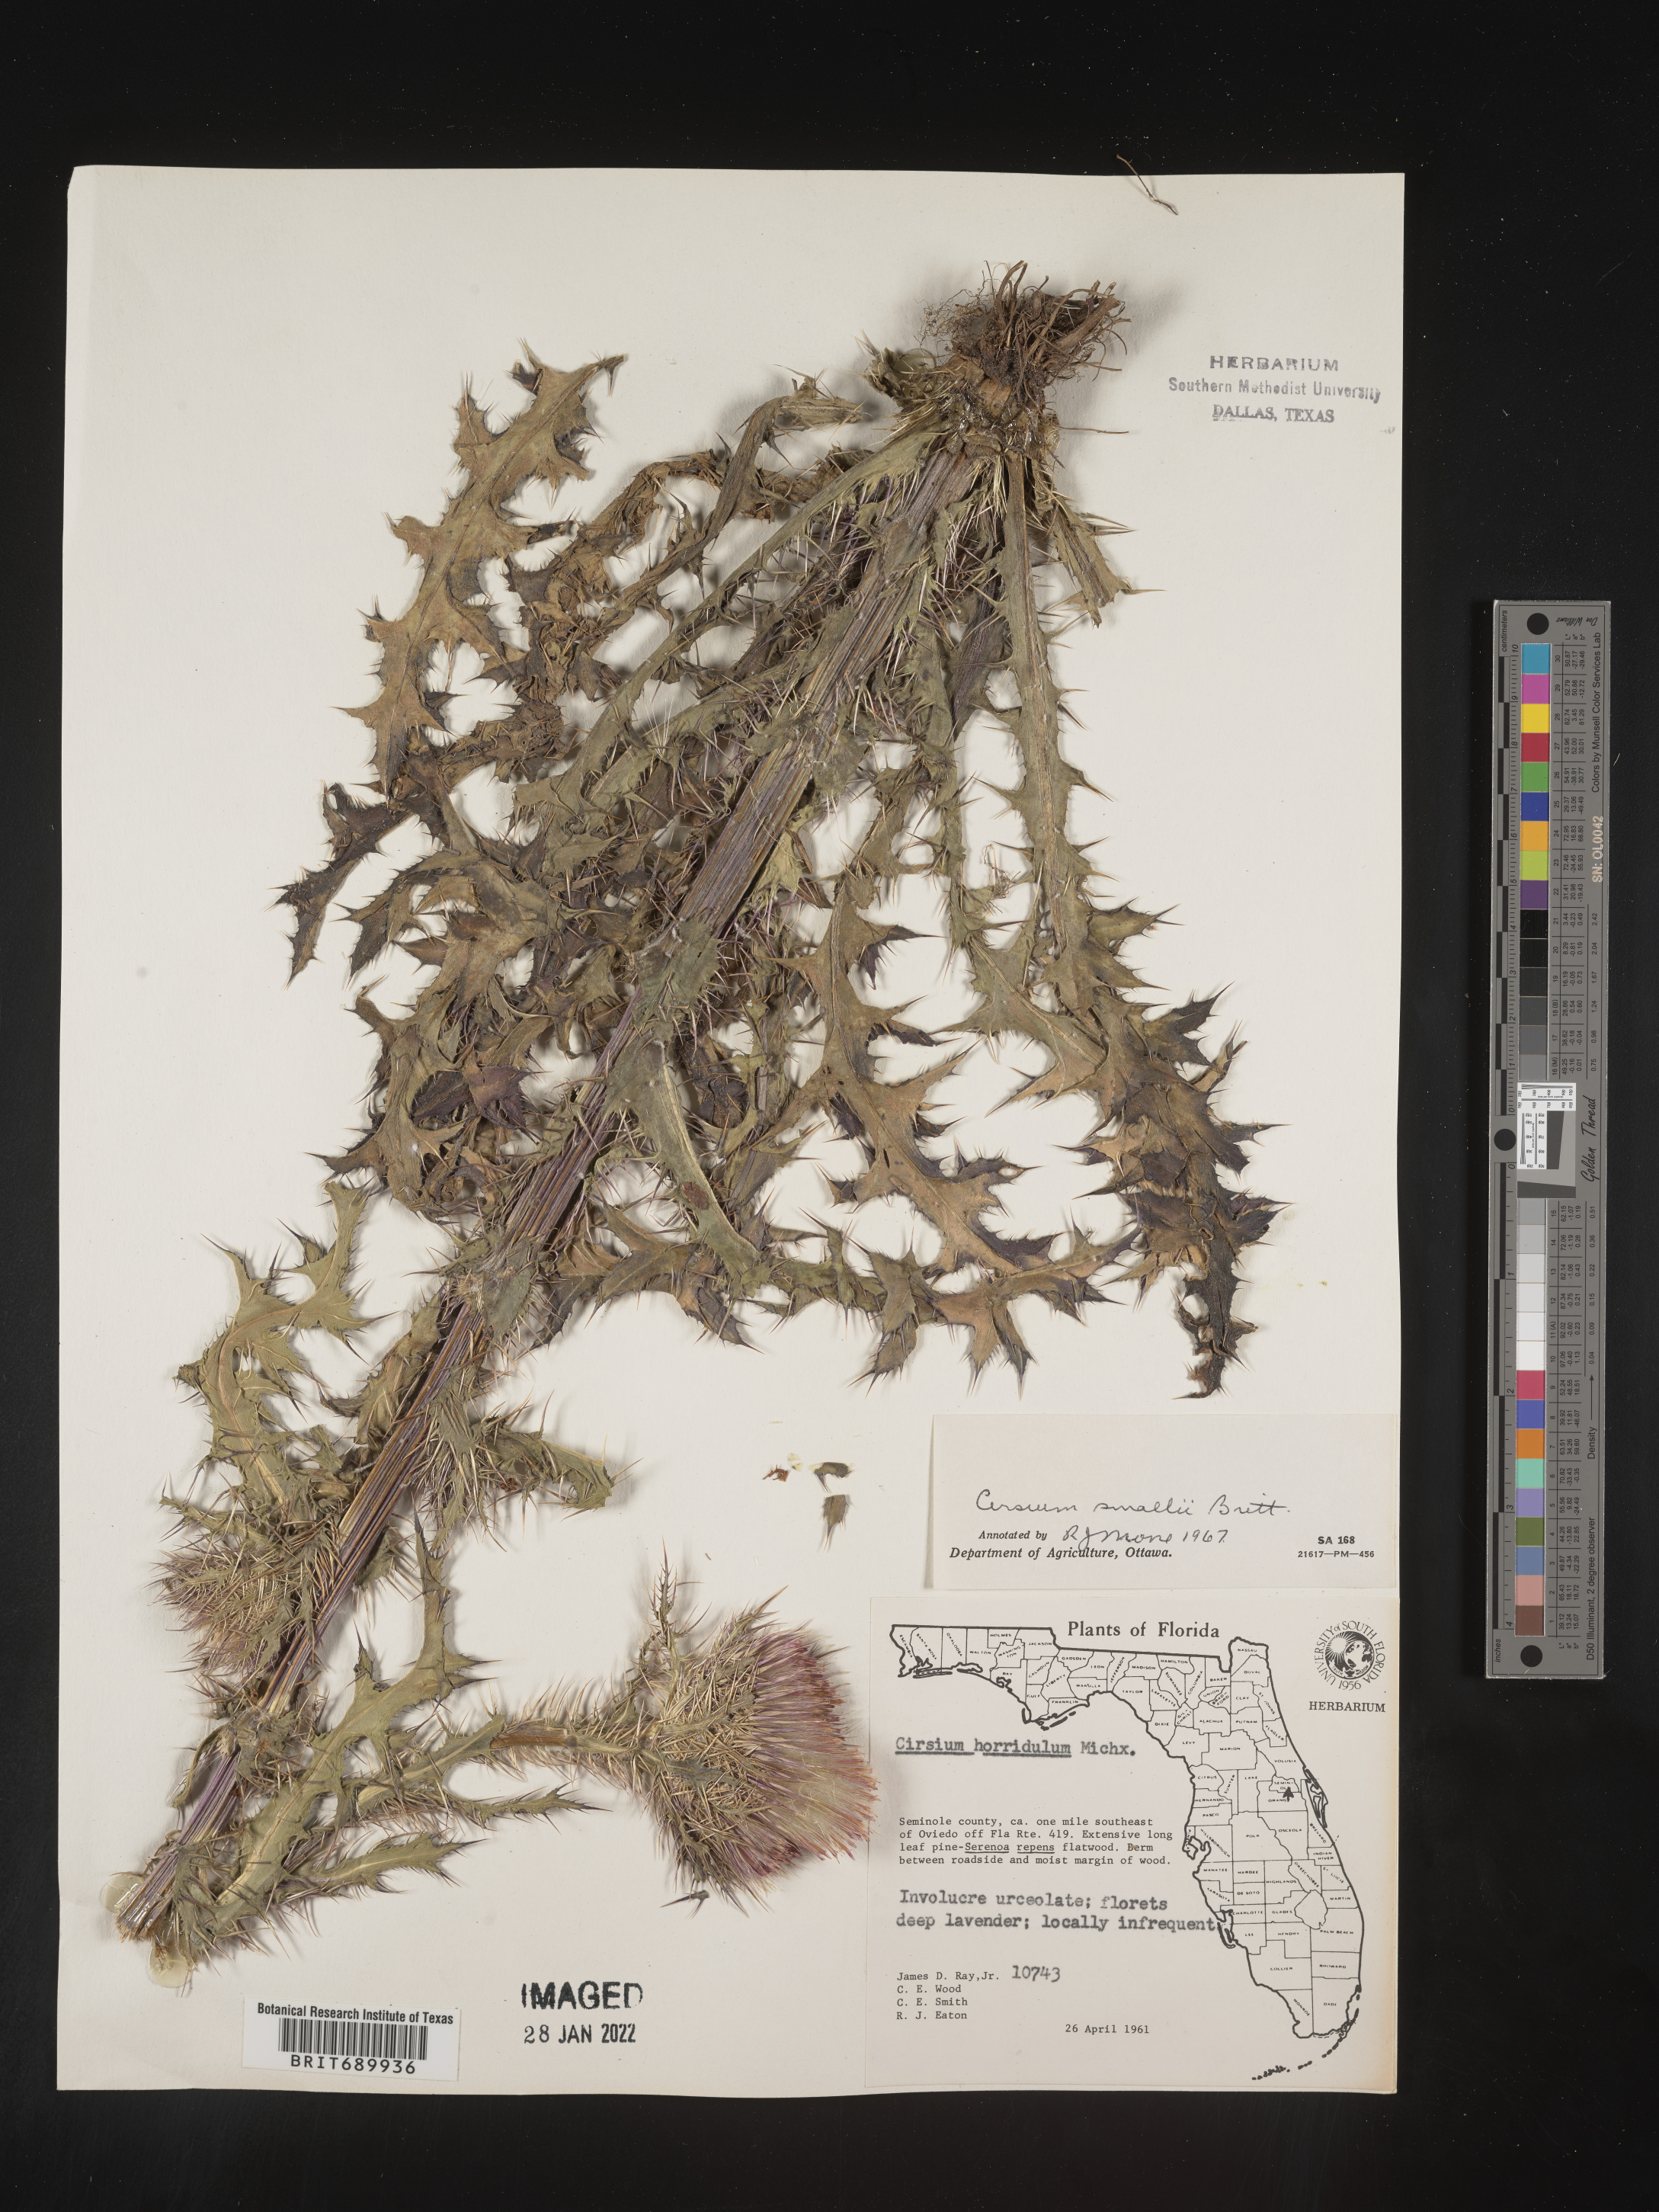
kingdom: Plantae
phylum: Tracheophyta
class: Magnoliopsida
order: Asterales
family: Asteraceae
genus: Cirsium
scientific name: Cirsium horridulum
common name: Bristly thistle
